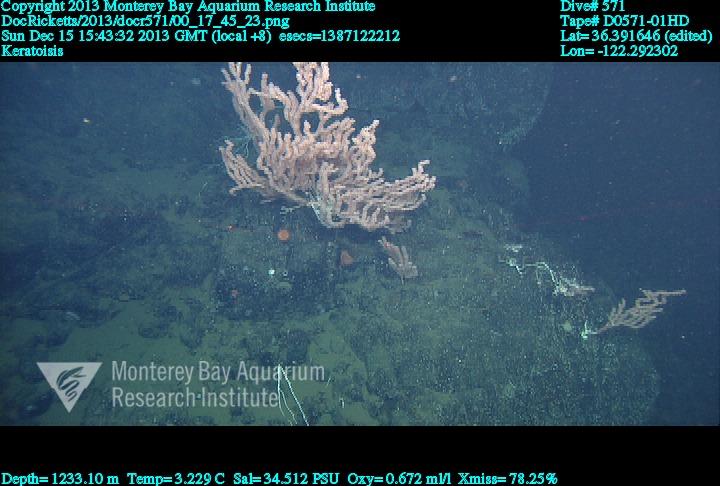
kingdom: Animalia
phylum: Cnidaria
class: Anthozoa
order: Scleralcyonacea
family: Keratoisididae
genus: Keratoisis
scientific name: Keratoisis
